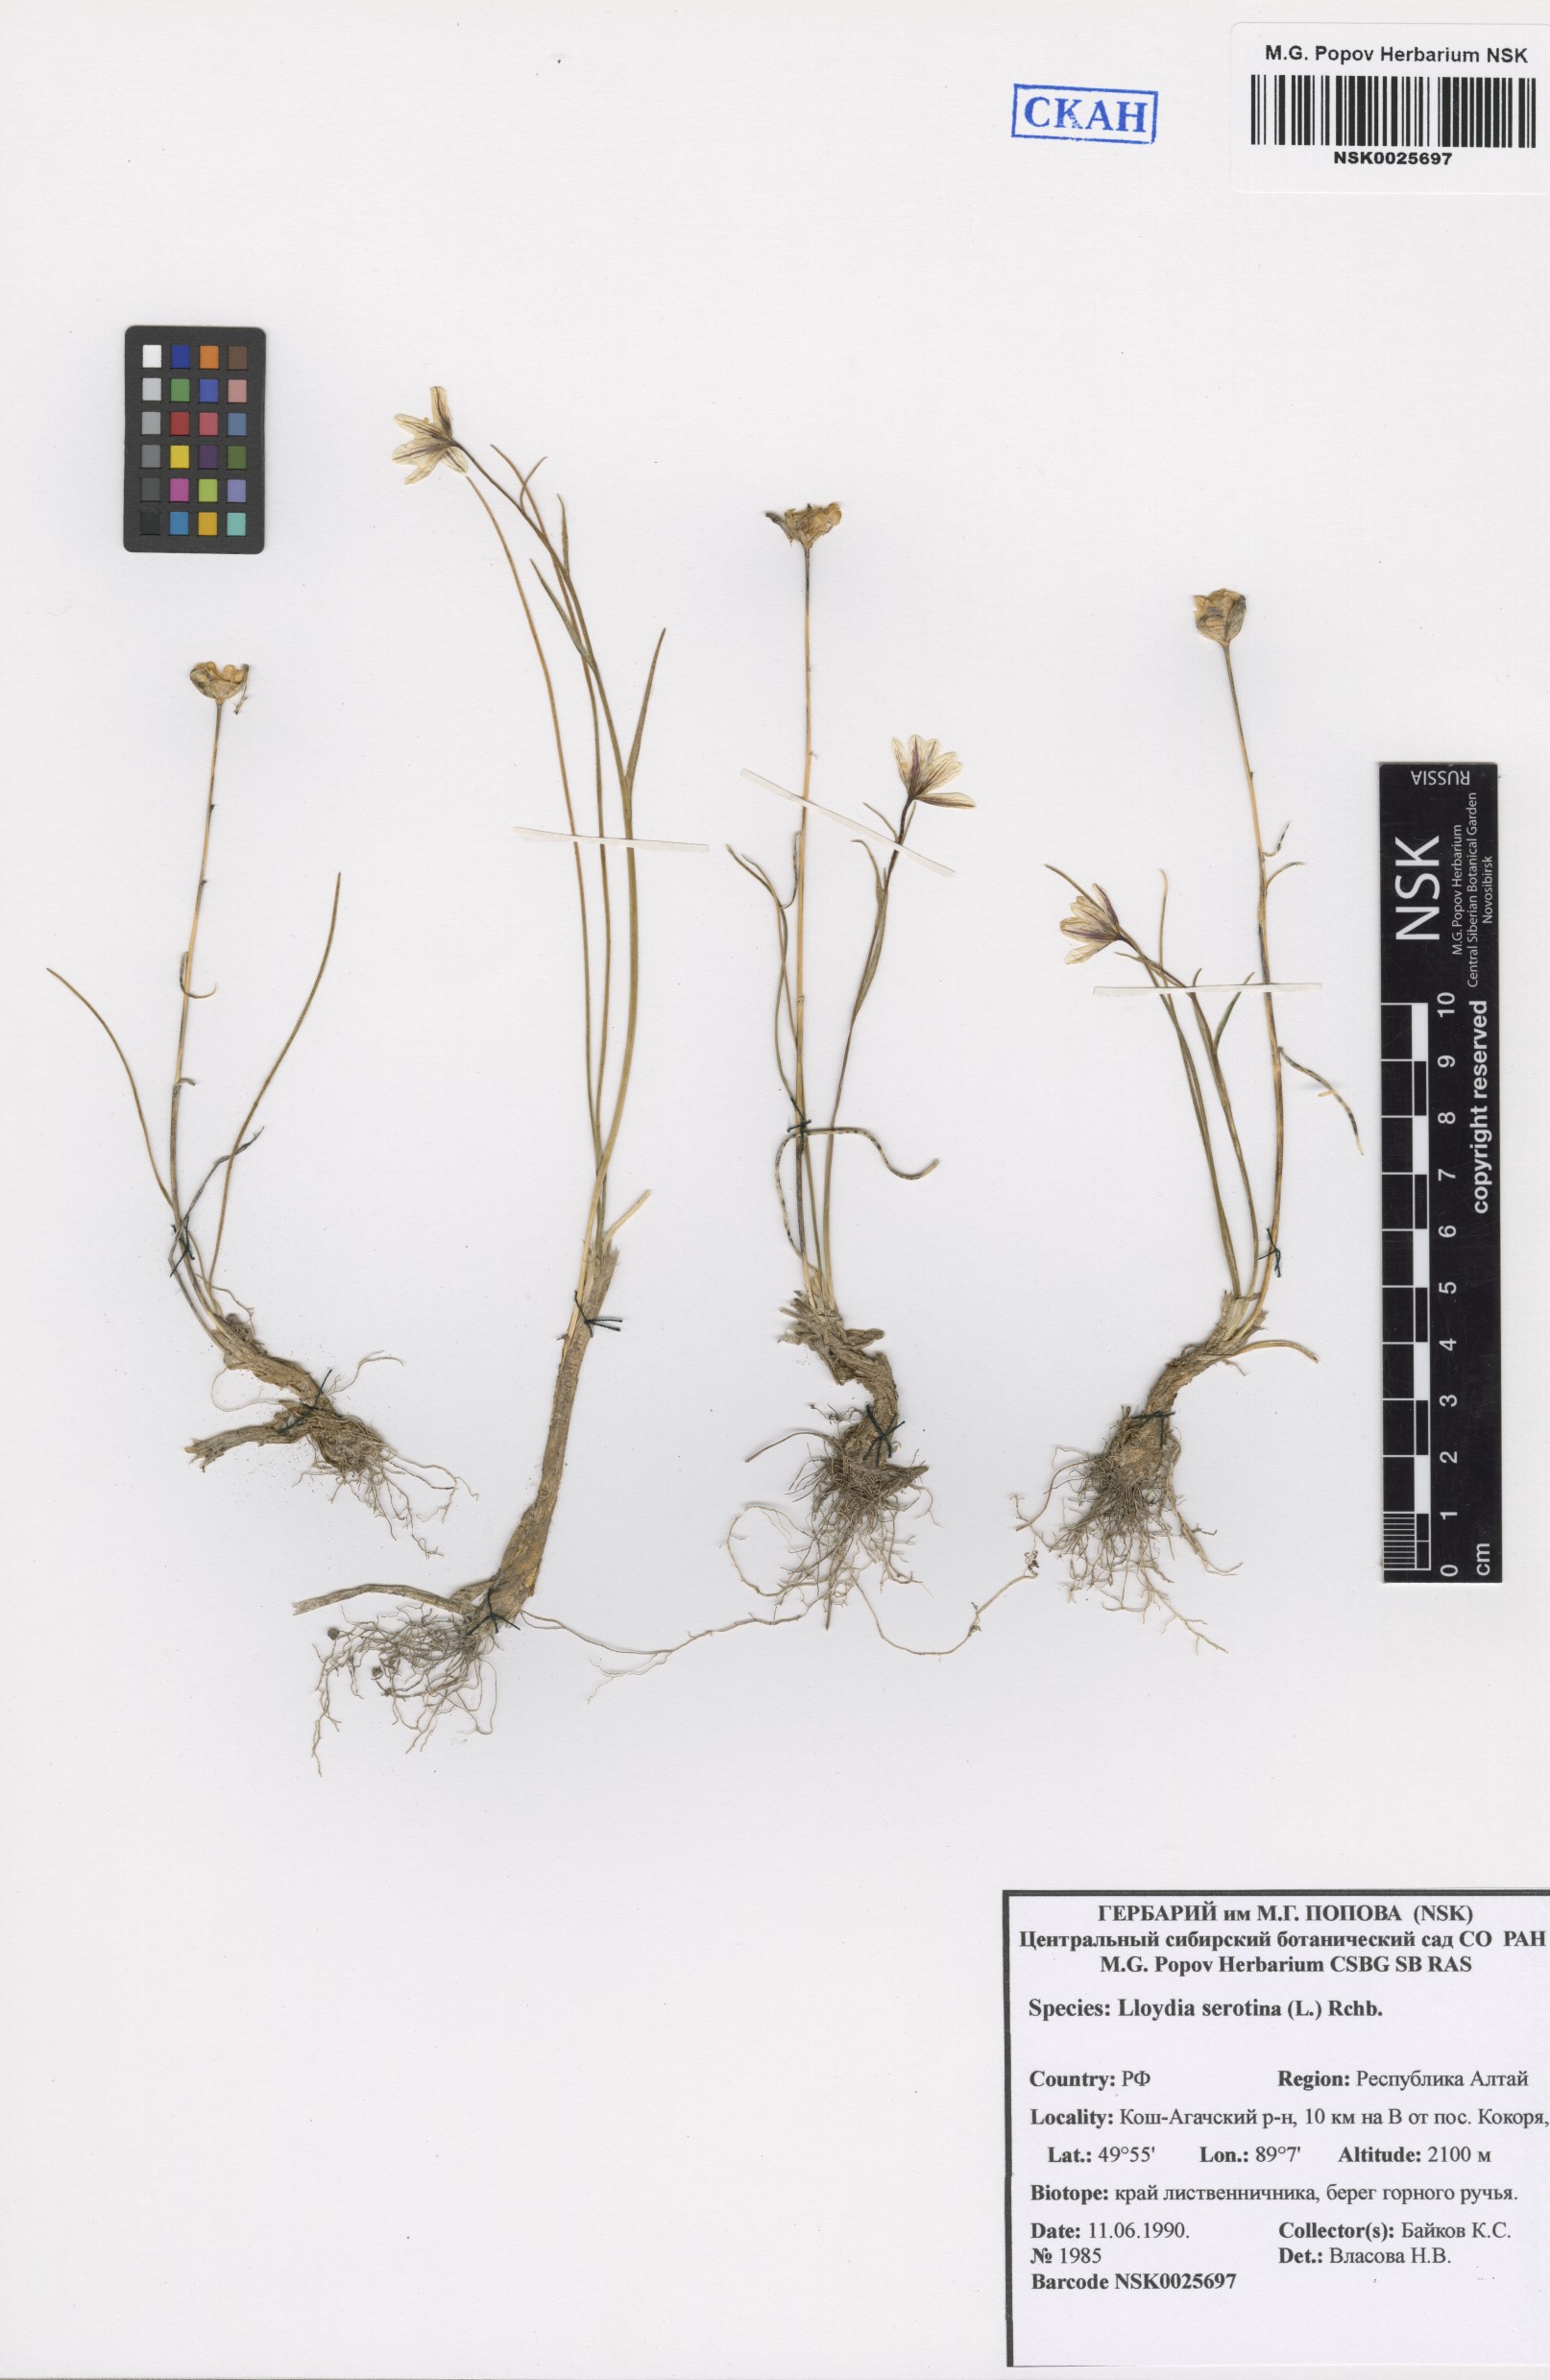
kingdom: Plantae
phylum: Tracheophyta
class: Liliopsida
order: Liliales
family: Liliaceae
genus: Gagea
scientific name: Gagea serotina
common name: Snowdon lily
